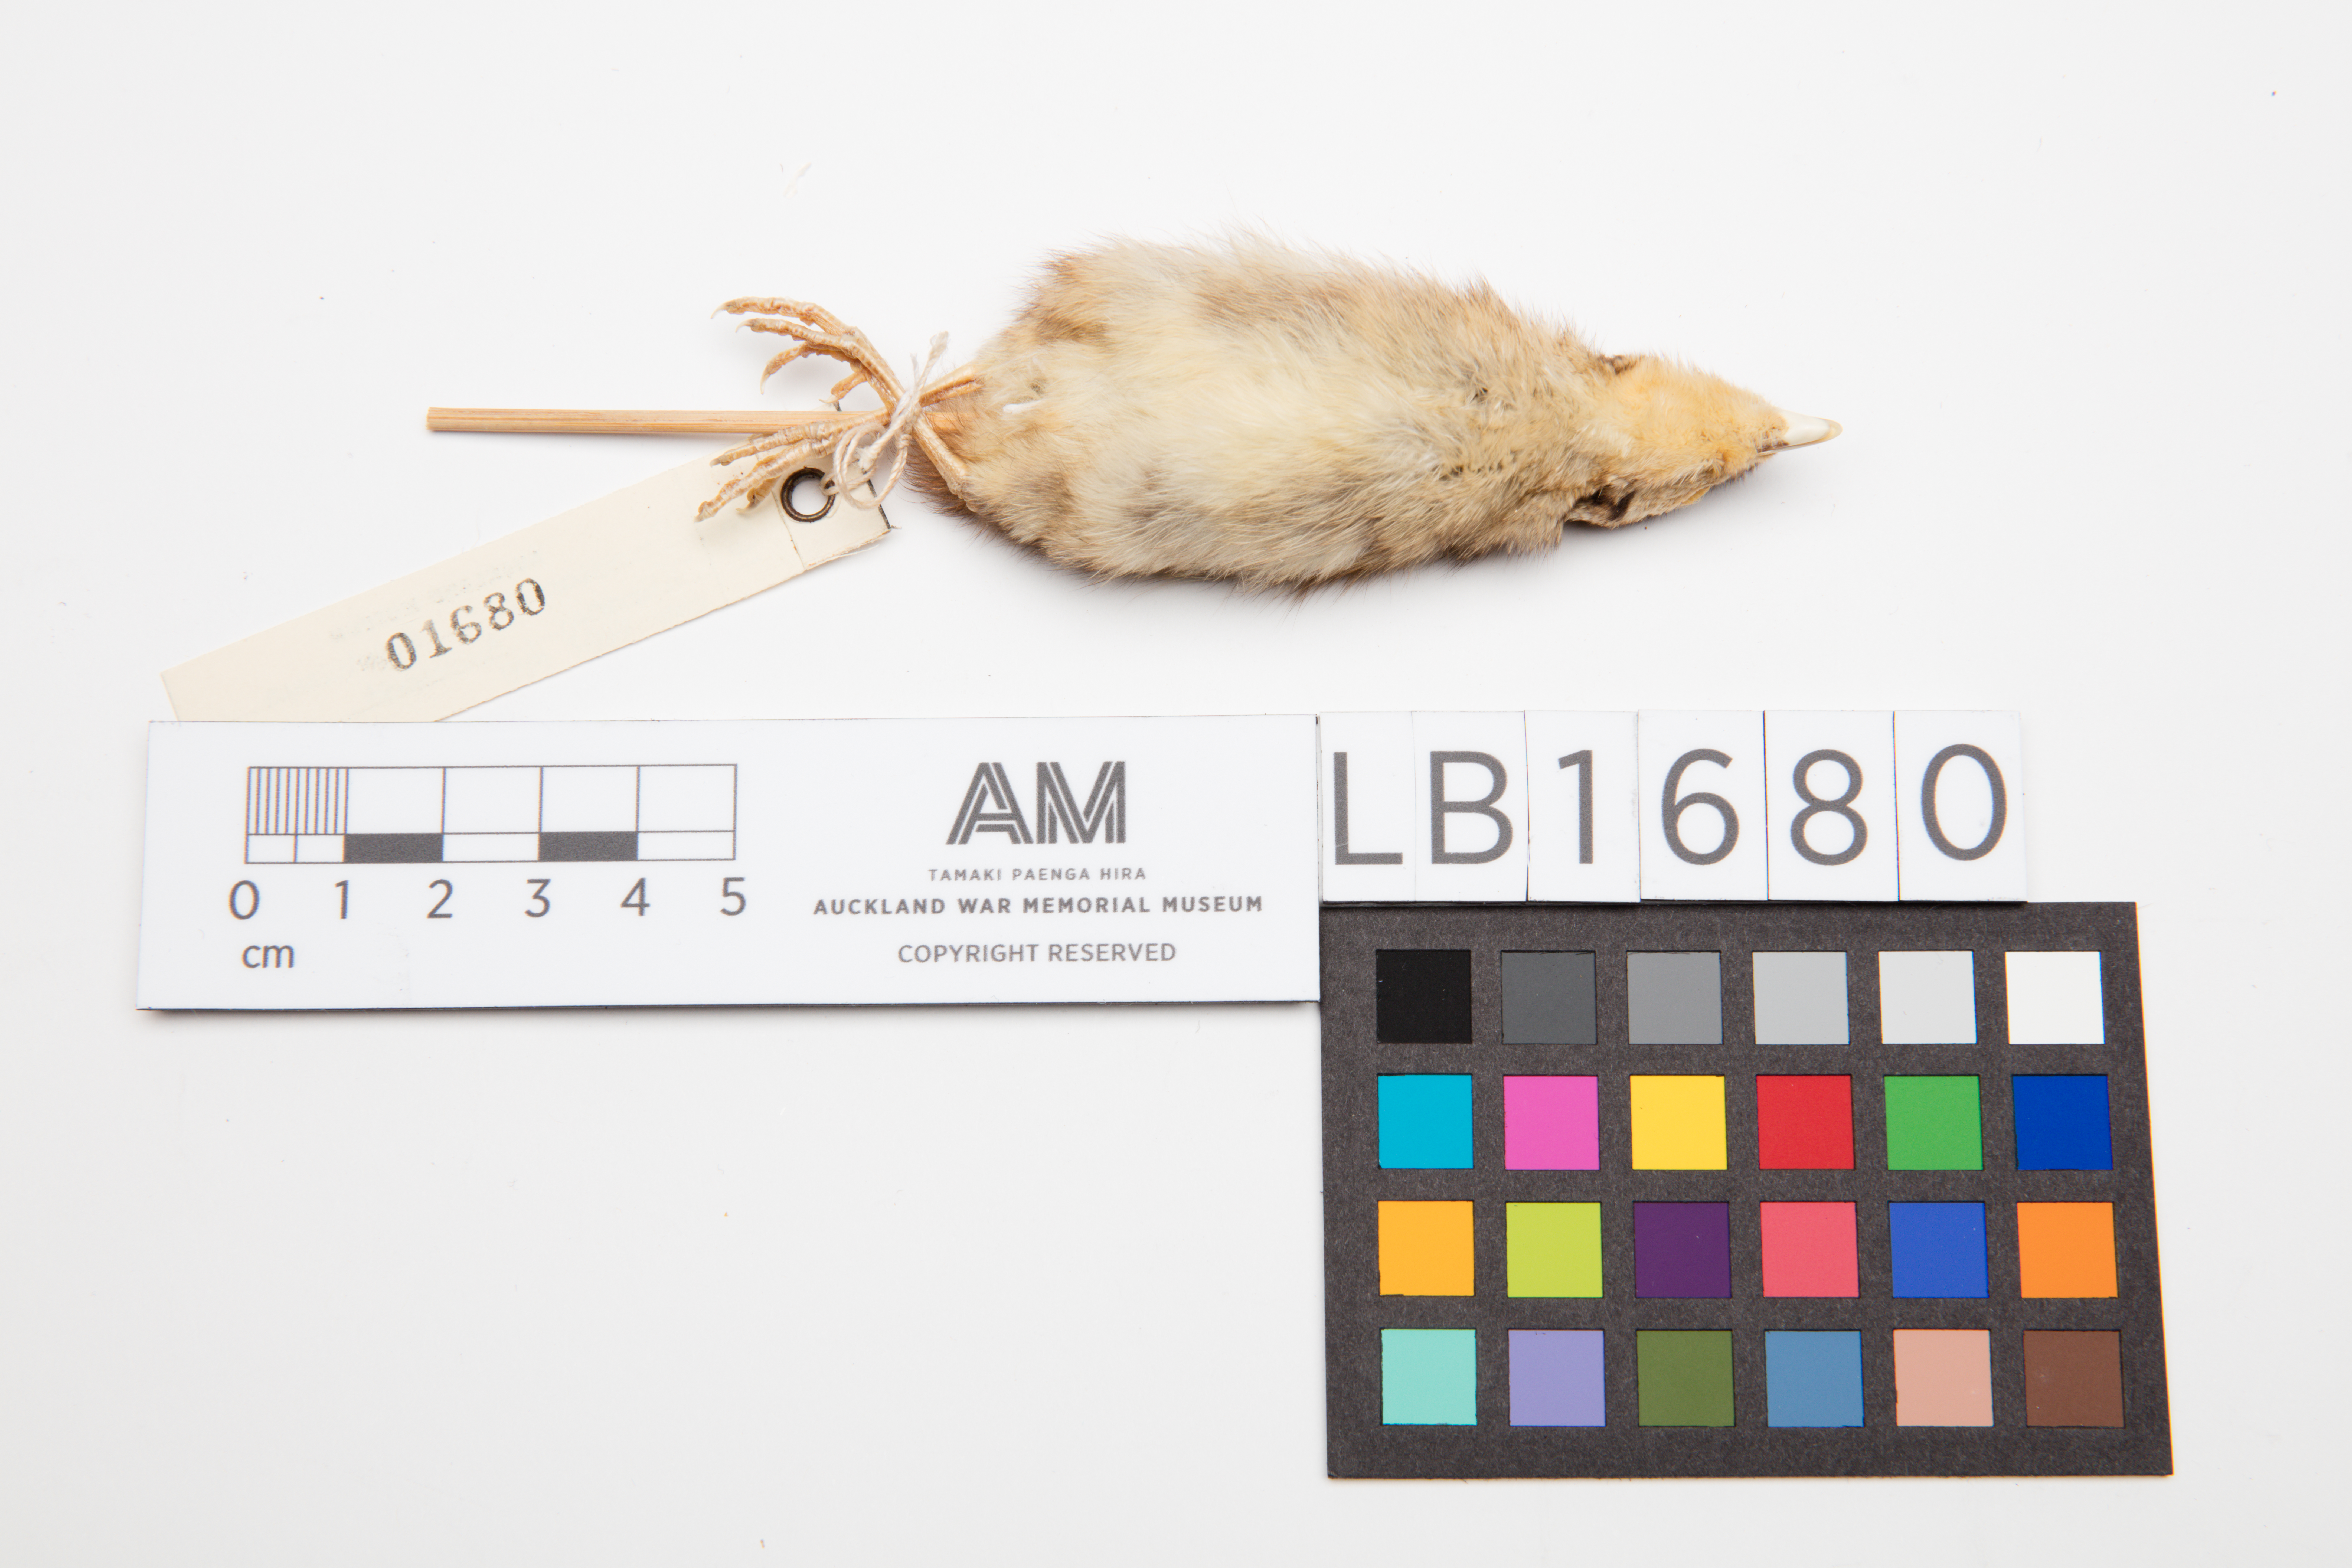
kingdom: Animalia
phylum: Chordata
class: Aves
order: Galliformes
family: Phasianidae
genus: Phasianus
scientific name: Phasianus colchicus
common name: Common pheasant
